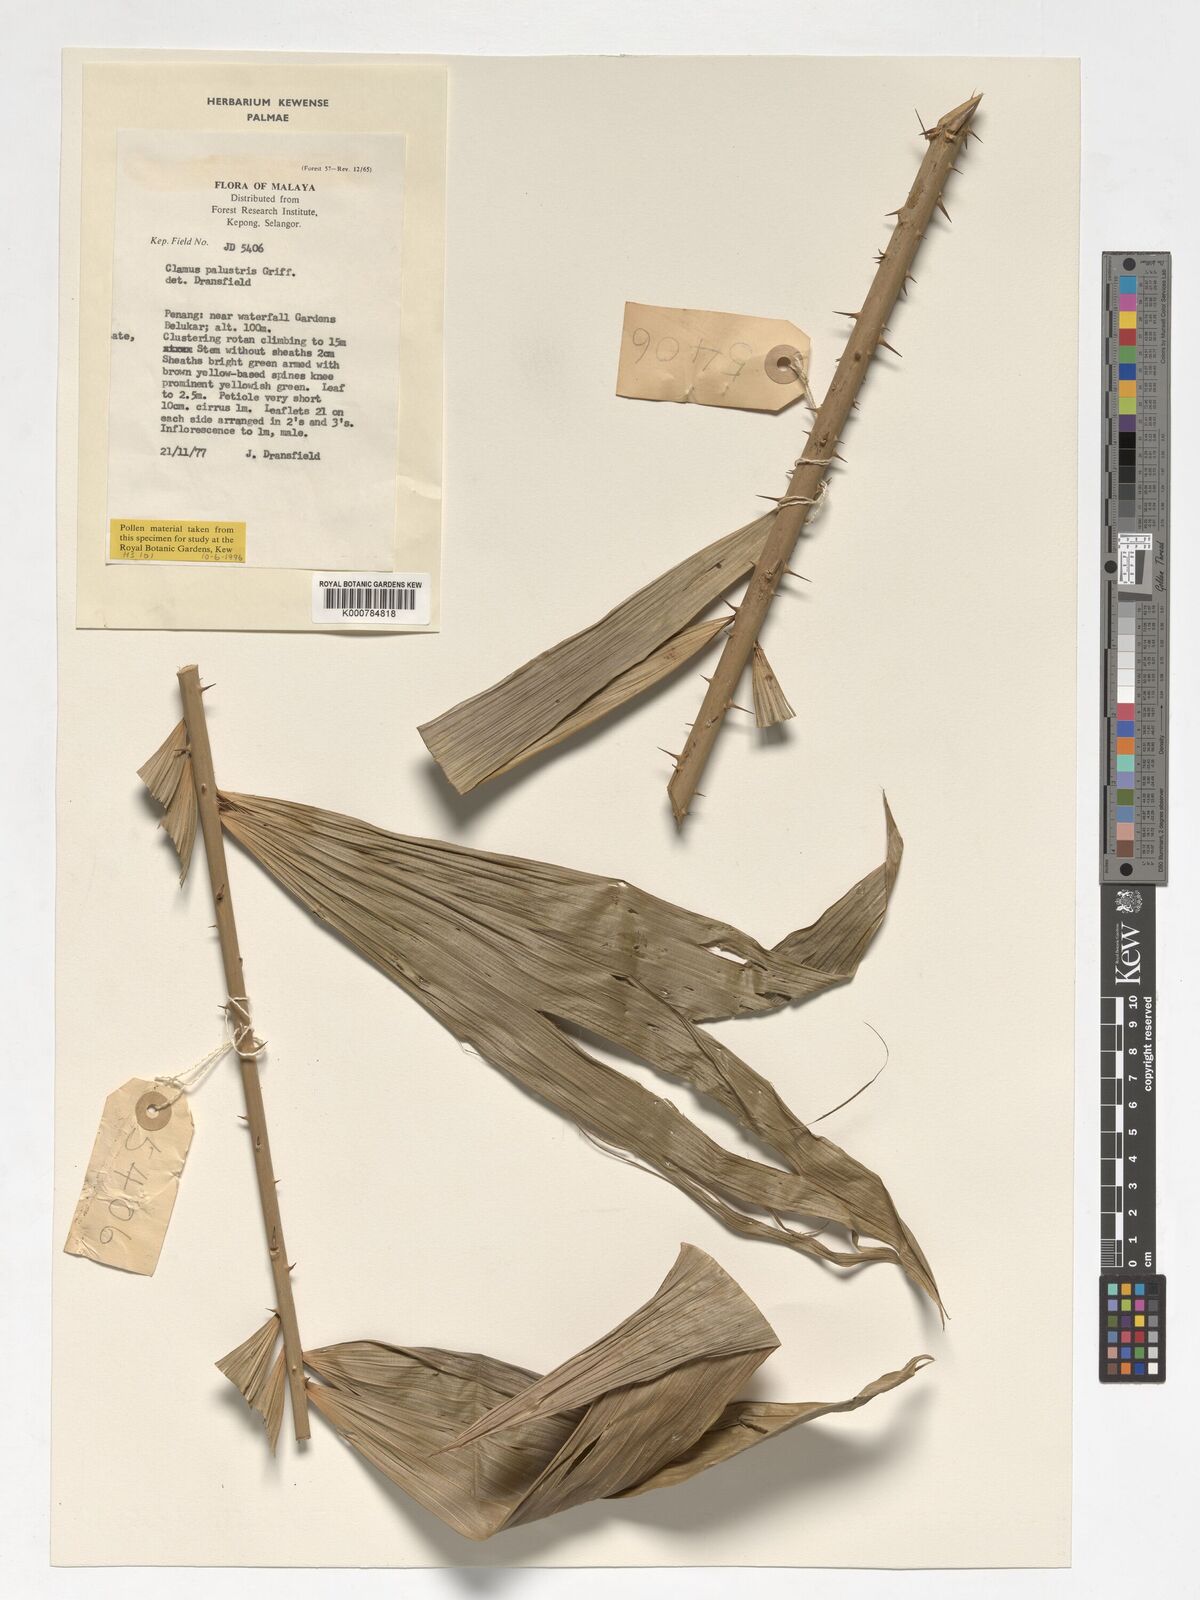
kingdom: Plantae
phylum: Tracheophyta
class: Liliopsida
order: Arecales
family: Arecaceae
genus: Calamus
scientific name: Calamus latifolius
